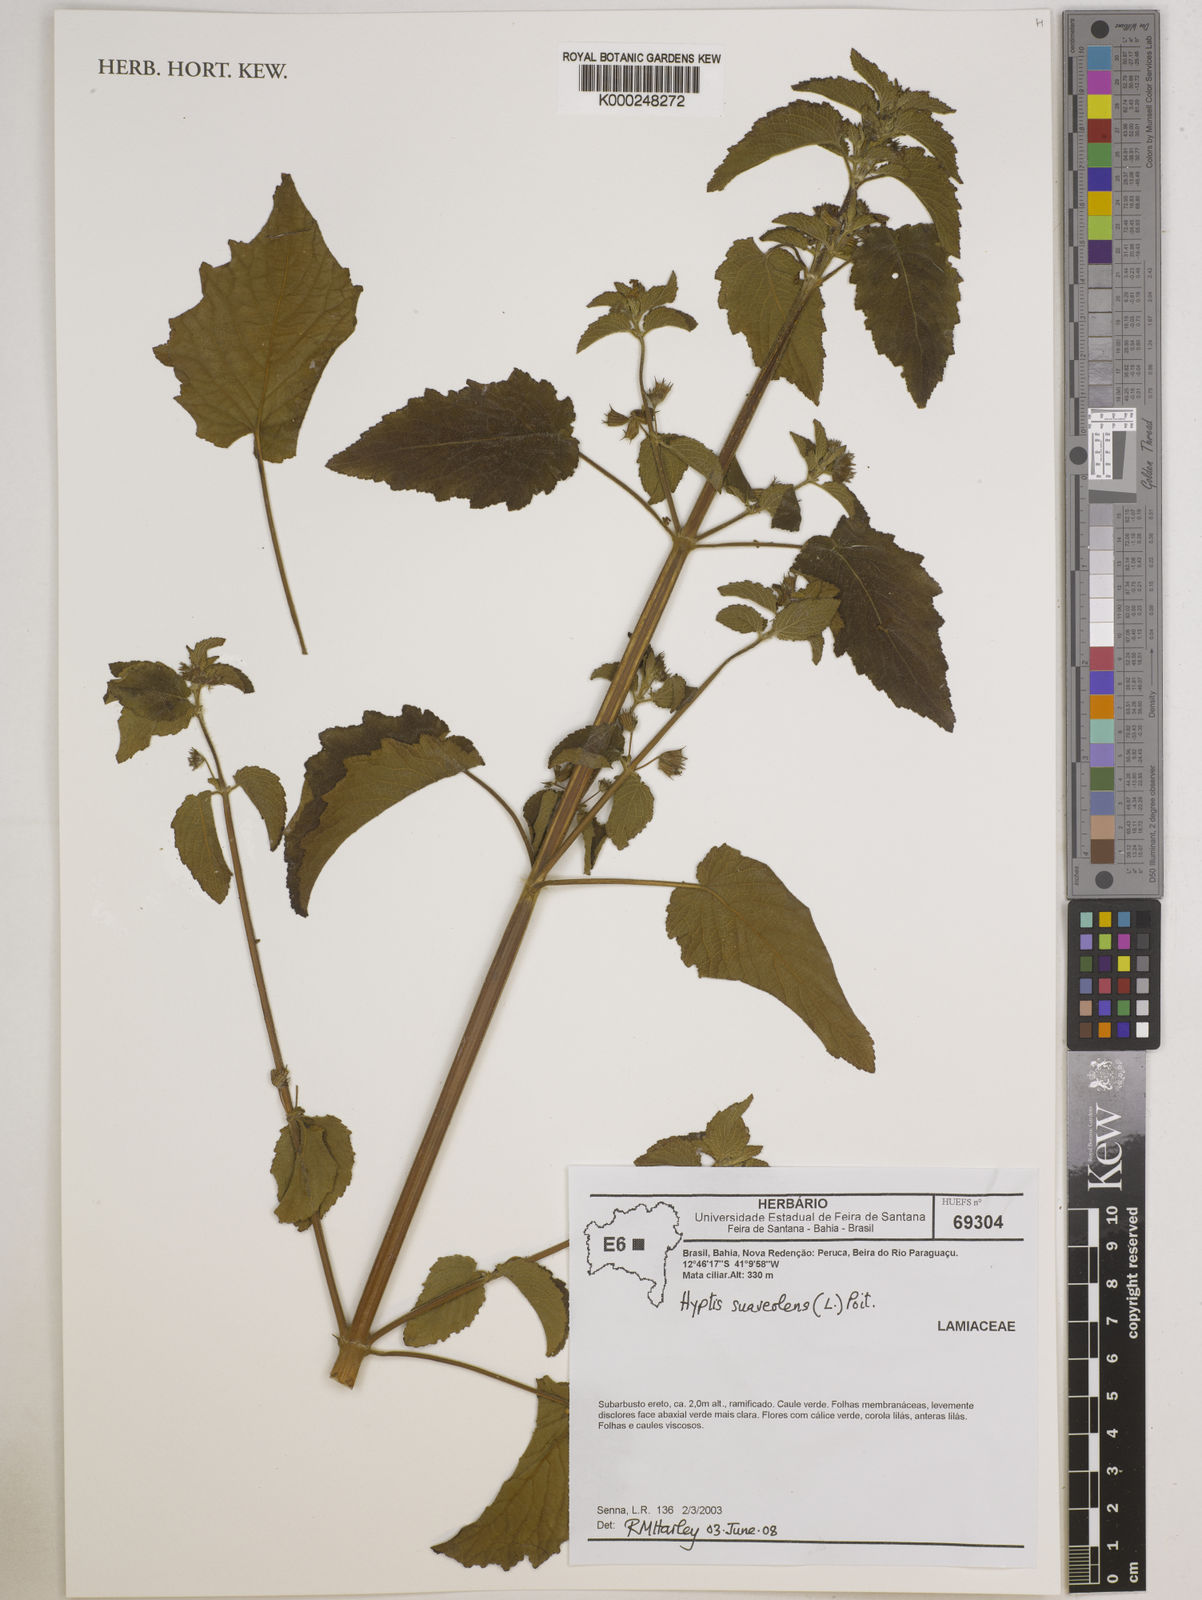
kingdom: Plantae
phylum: Tracheophyta
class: Magnoliopsida
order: Lamiales
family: Lamiaceae
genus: Mesosphaerum
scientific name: Mesosphaerum suaveolens
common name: Pignut
